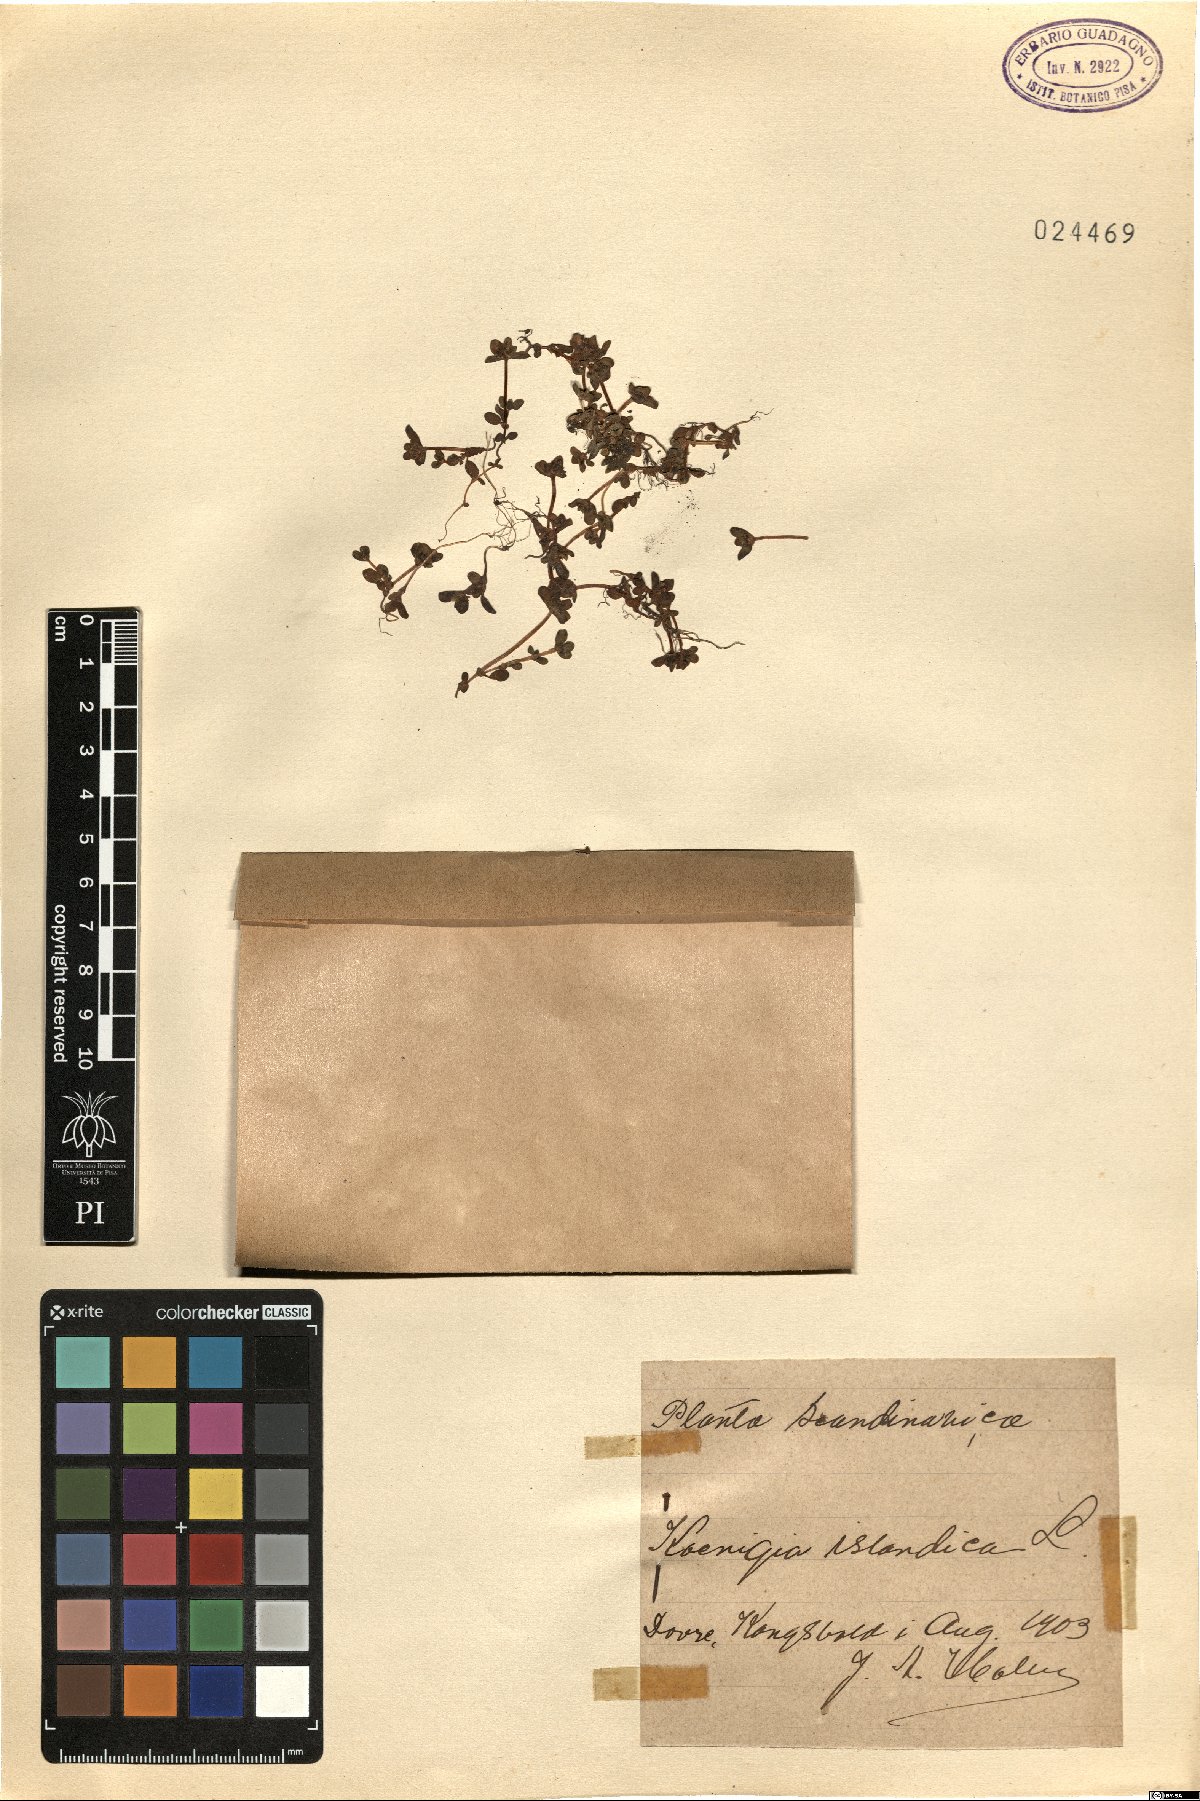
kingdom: Plantae
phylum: Tracheophyta
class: Magnoliopsida
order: Caryophyllales
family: Polygonaceae
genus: Koenigia
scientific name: Koenigia islandica
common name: Iceland-purslane
